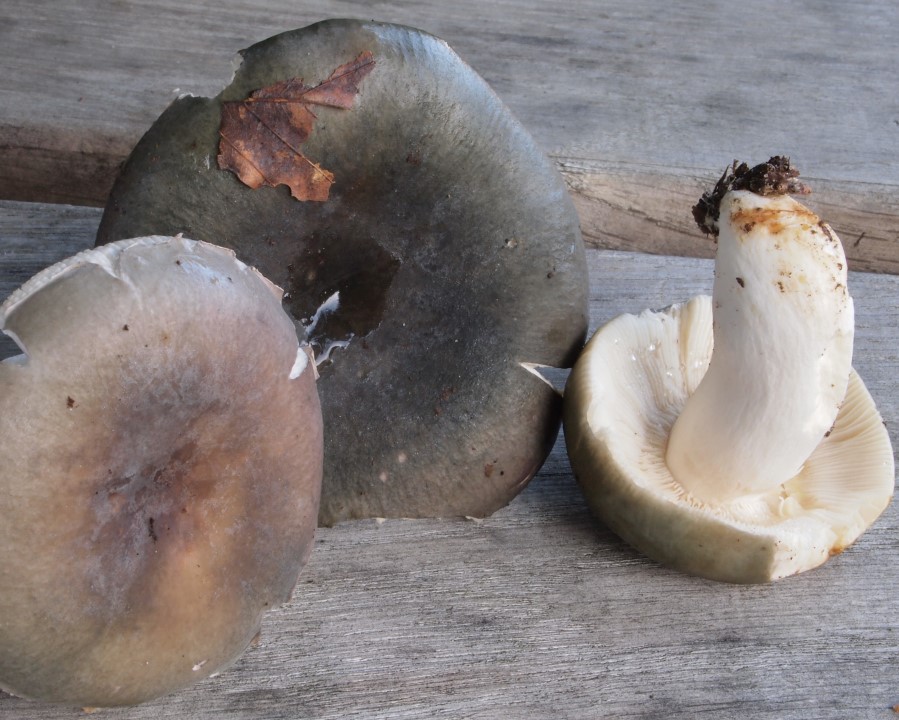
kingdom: Fungi
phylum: Basidiomycota
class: Agaricomycetes
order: Russulales
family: Russulaceae
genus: Russula
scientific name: Russula
